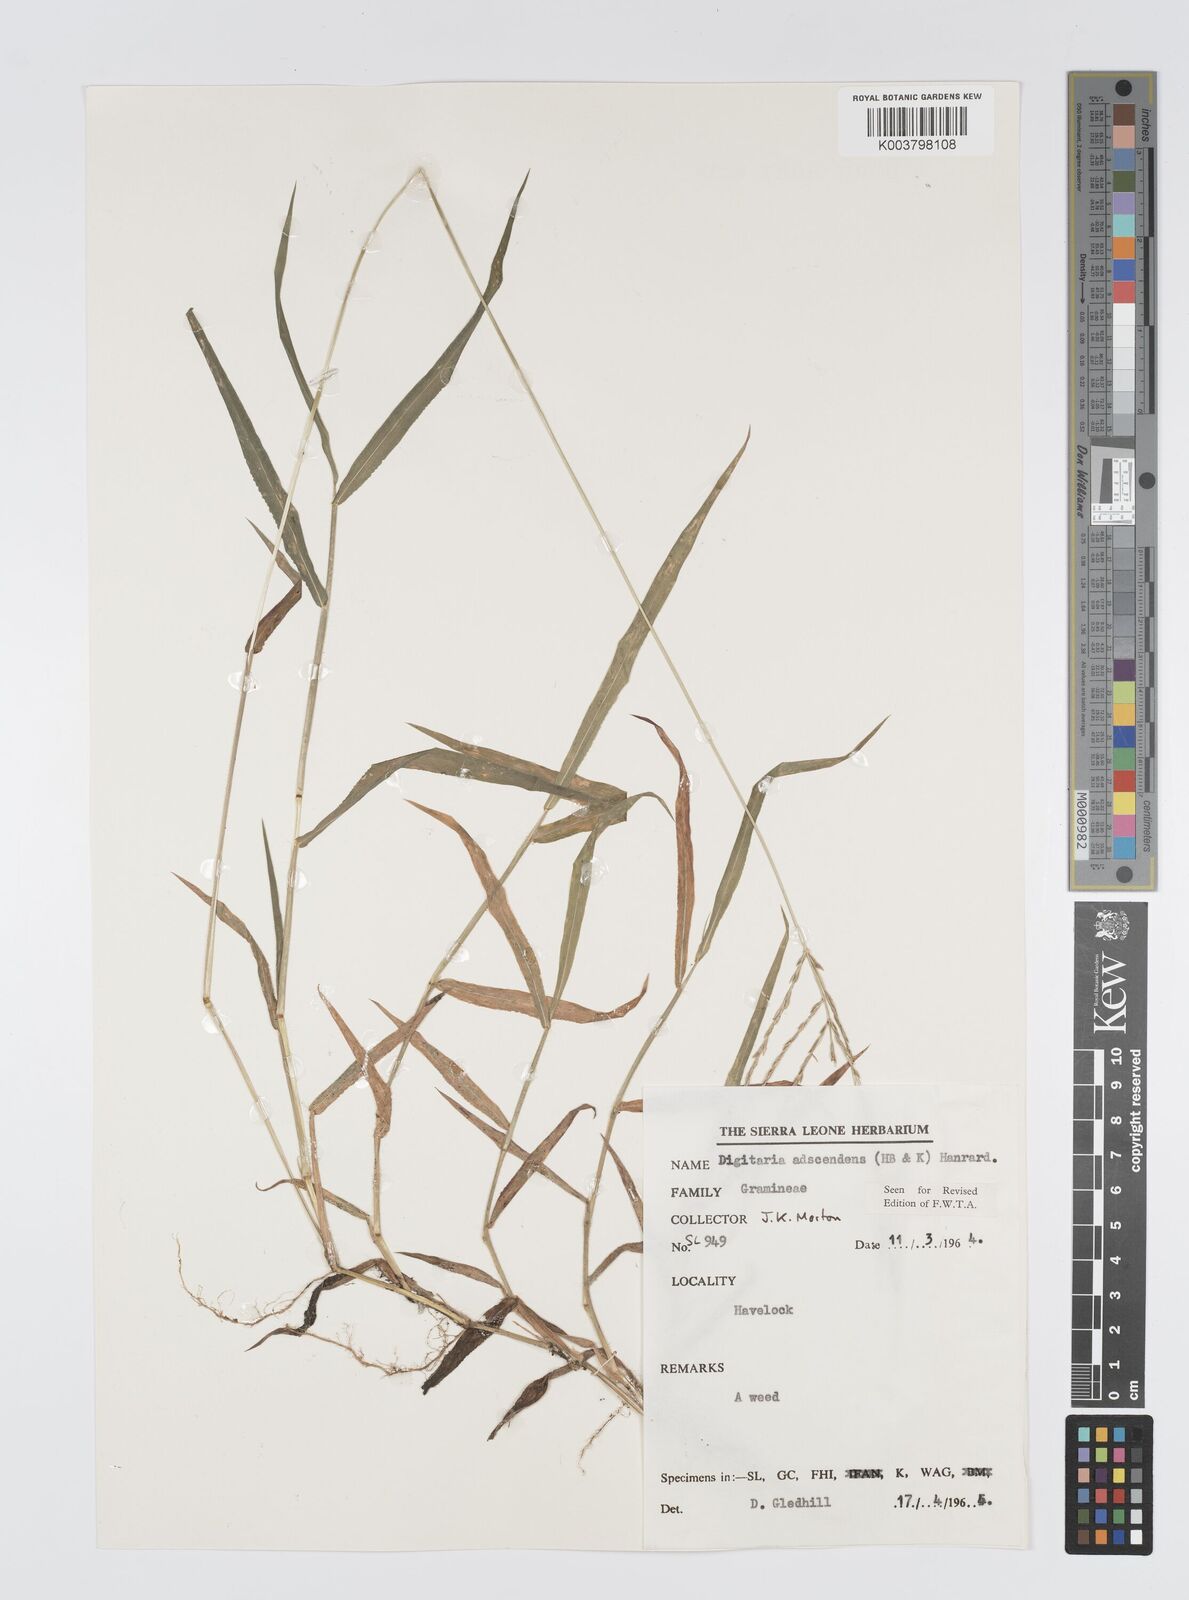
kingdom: Plantae
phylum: Tracheophyta
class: Liliopsida
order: Poales
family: Poaceae
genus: Digitaria
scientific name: Digitaria
